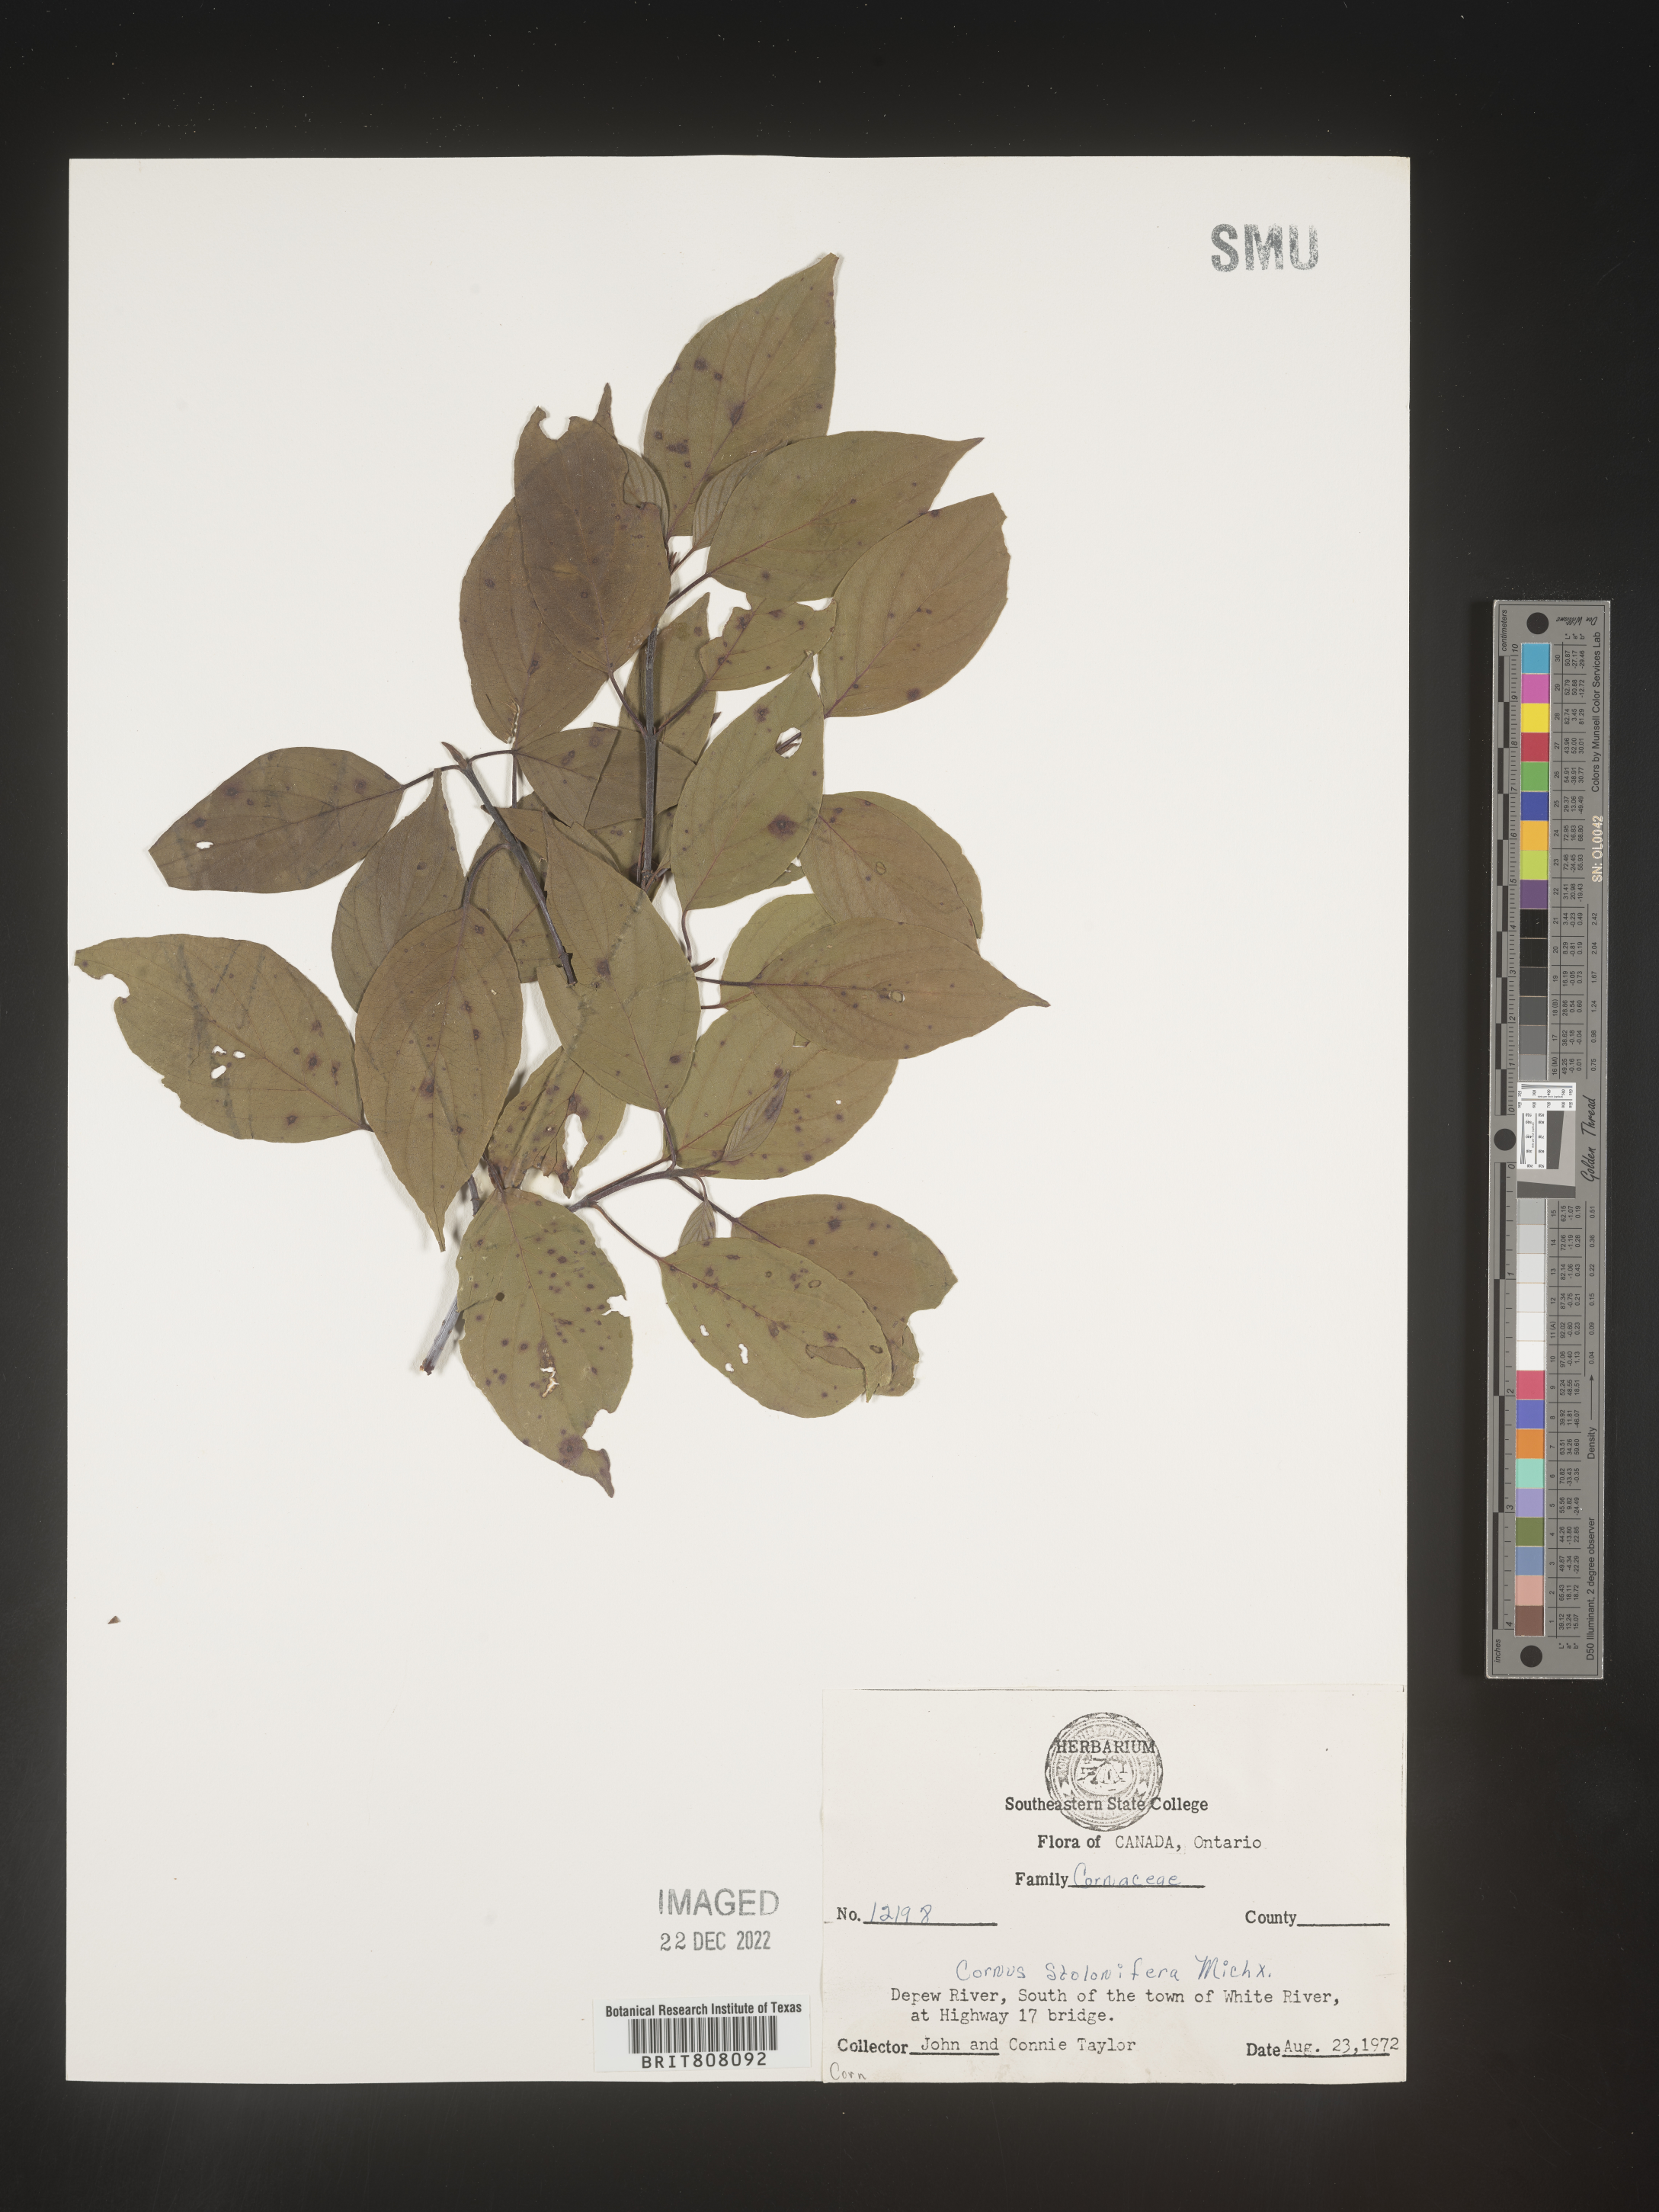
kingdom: Plantae
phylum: Tracheophyta
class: Magnoliopsida
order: Cornales
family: Cornaceae
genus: Cornus
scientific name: Cornus sericea
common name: Red-osier dogwood
